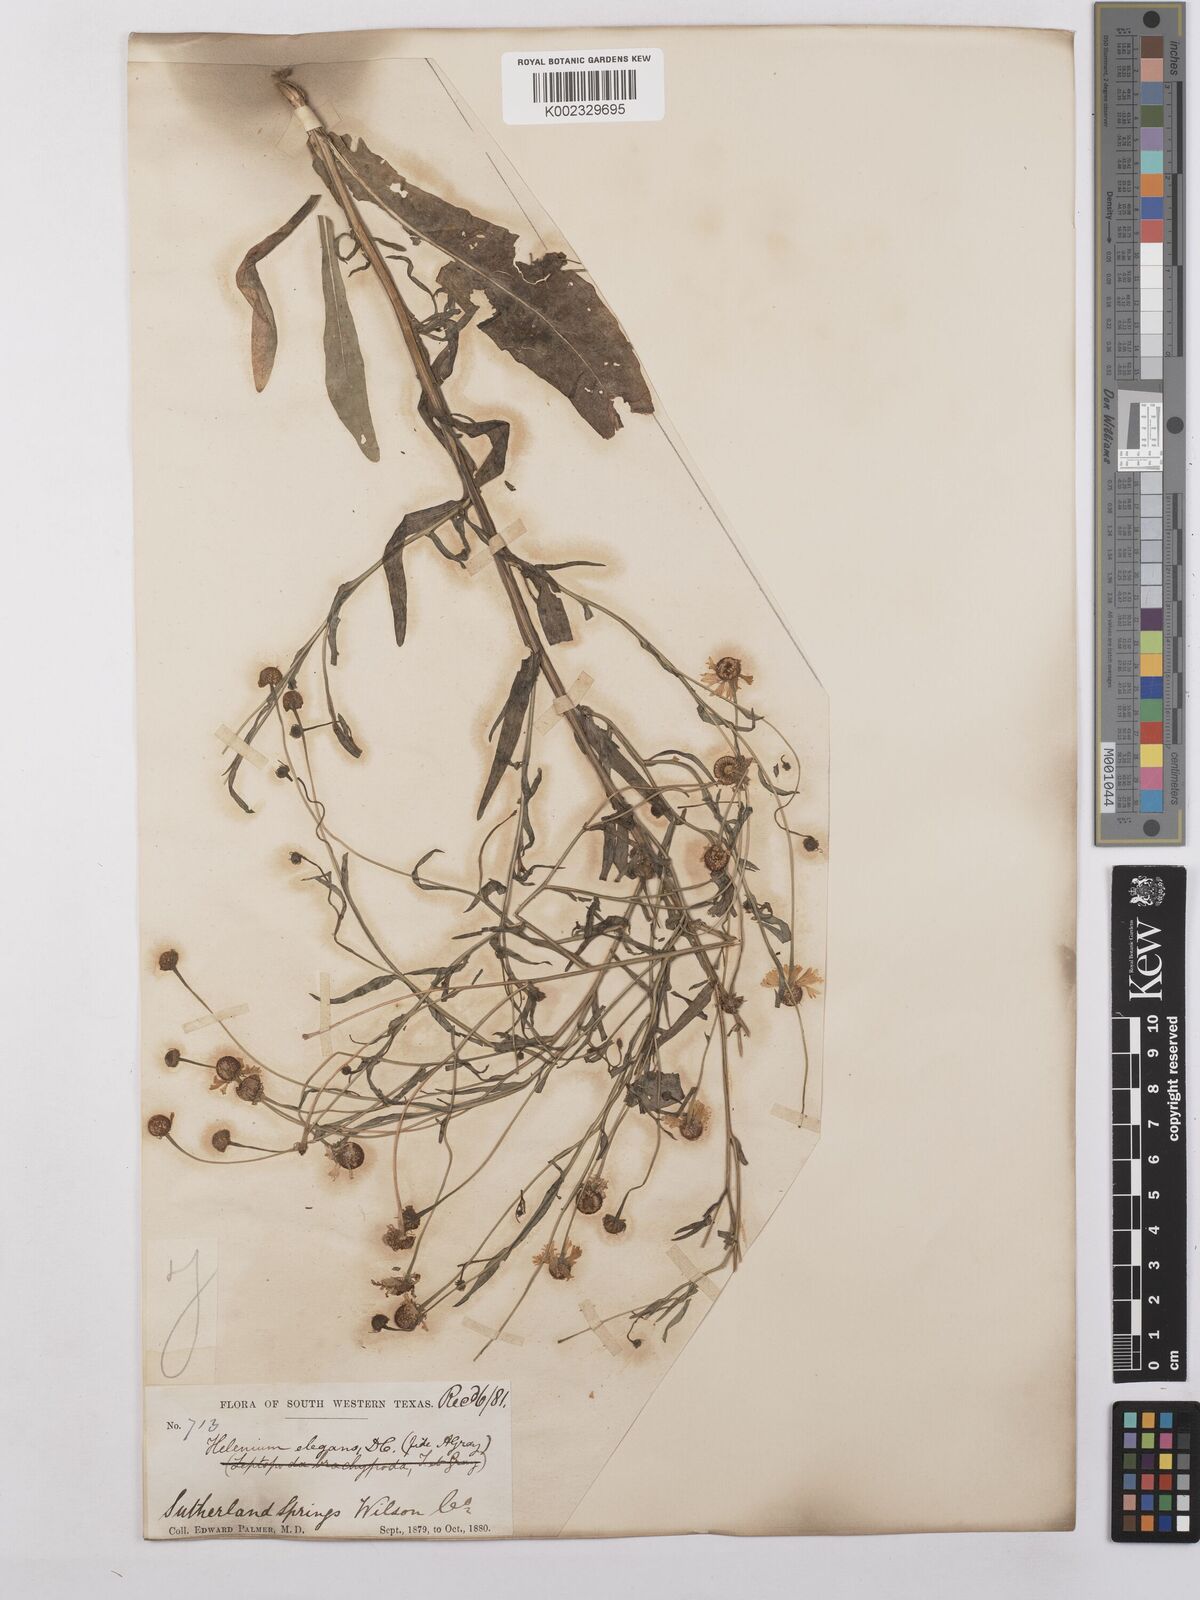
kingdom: Plantae
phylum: Tracheophyta
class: Magnoliopsida
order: Asterales
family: Asteraceae
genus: Helenium
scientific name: Helenium elegans
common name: Pretty sneezeweed
